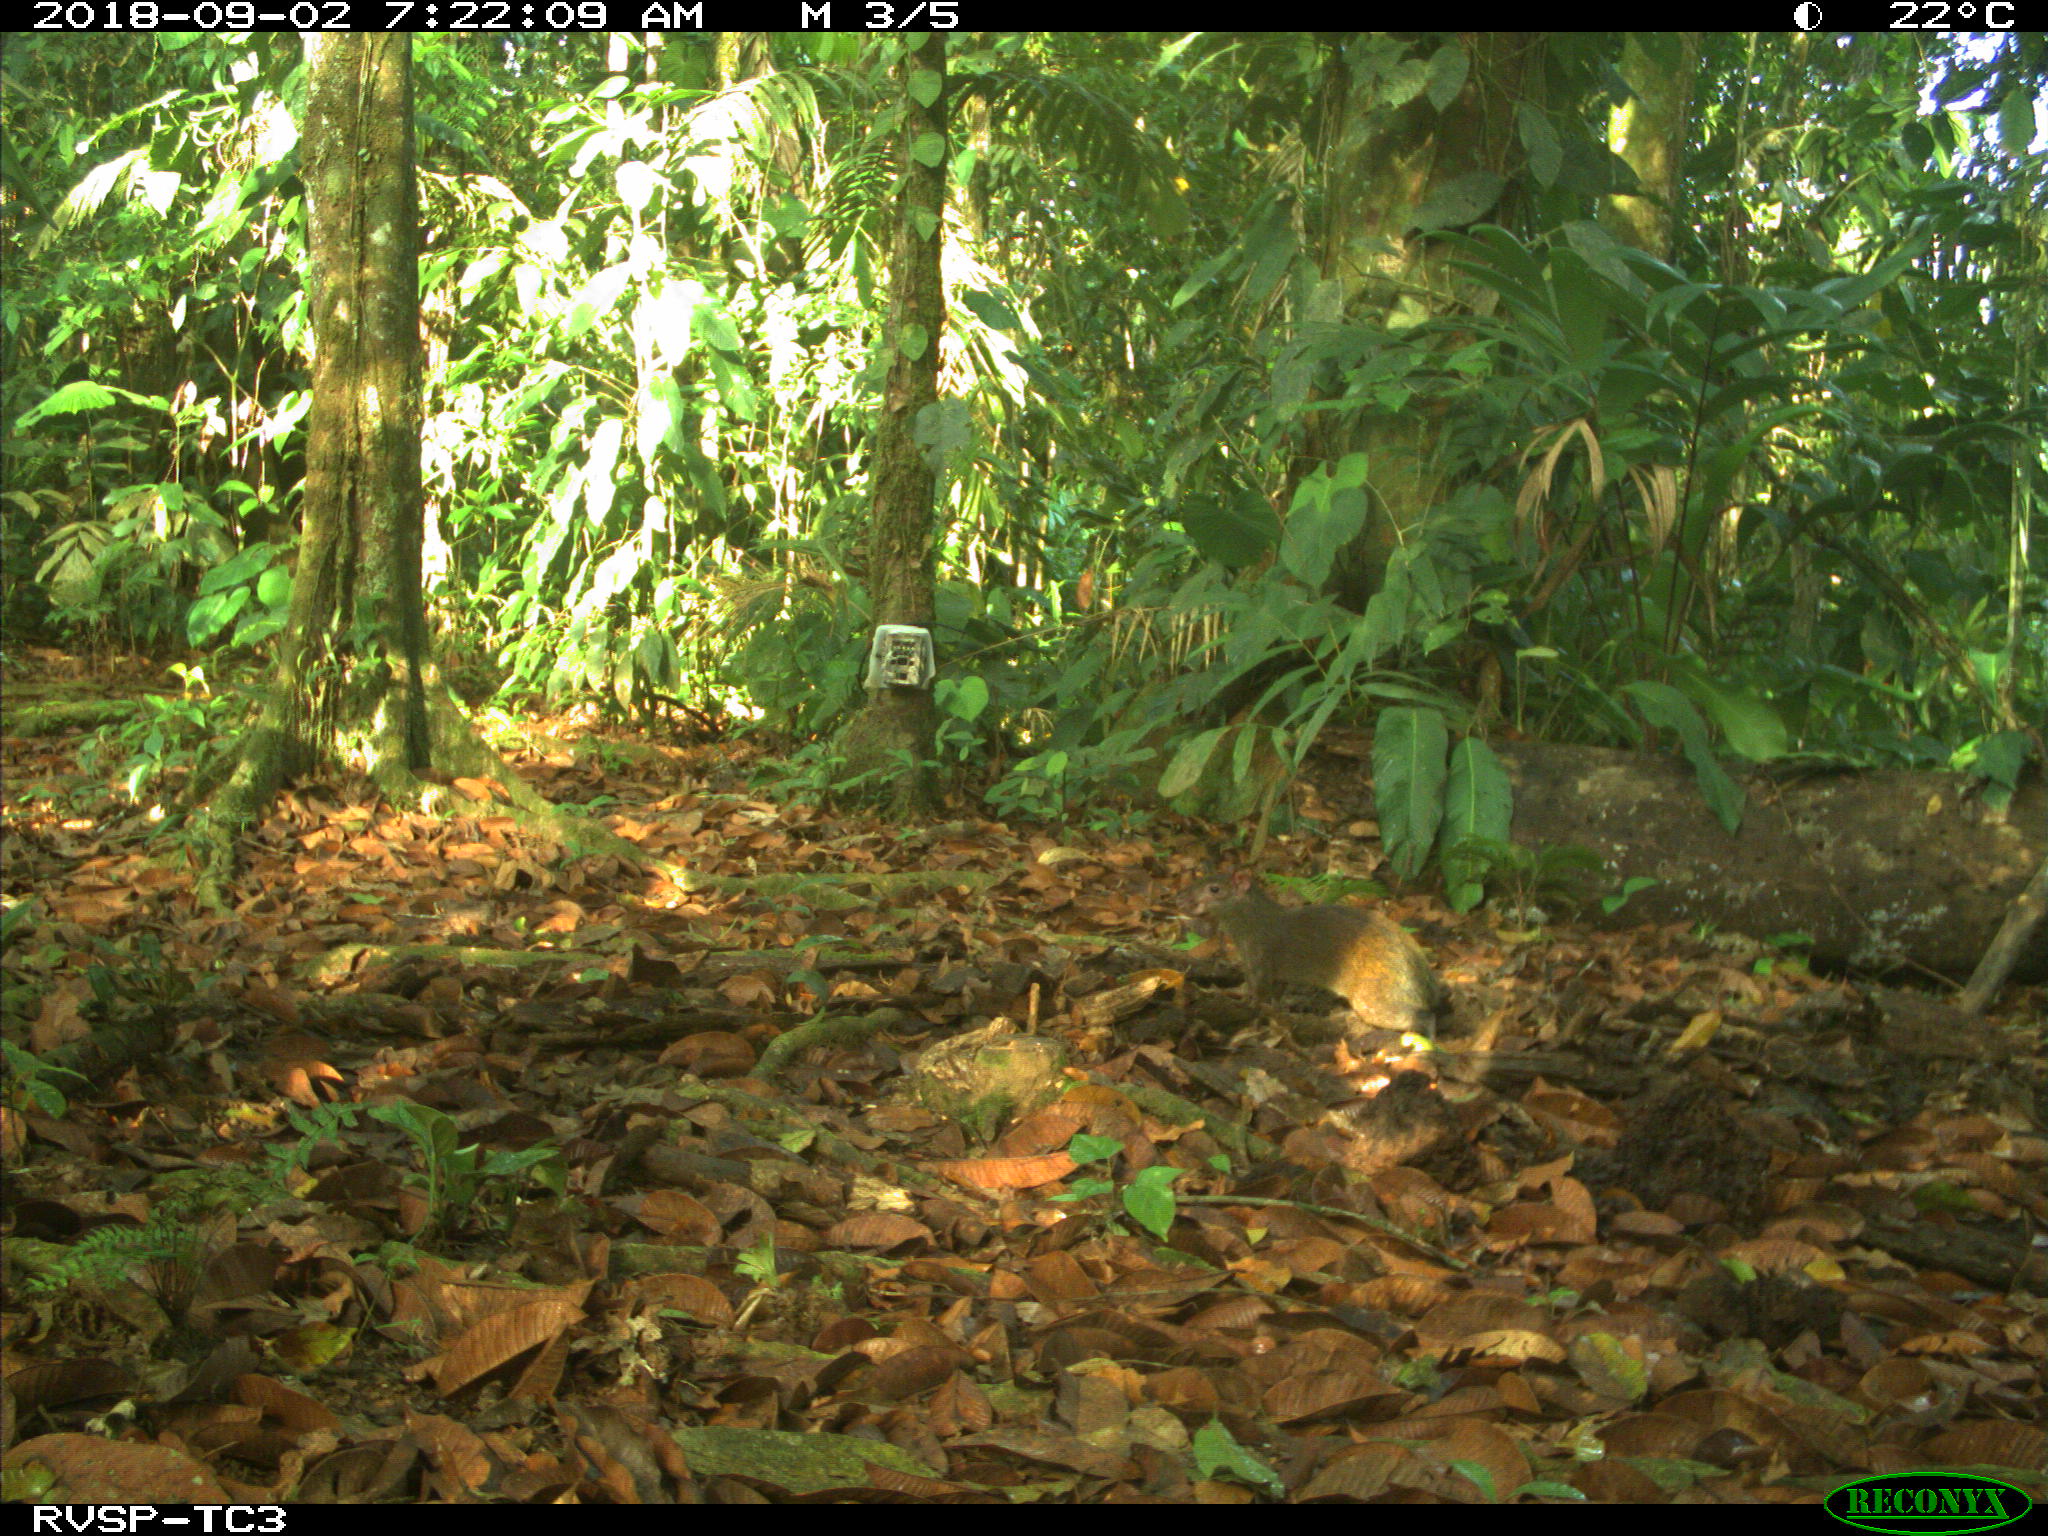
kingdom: Animalia
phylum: Chordata
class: Mammalia
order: Rodentia
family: Dasyproctidae
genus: Dasyprocta
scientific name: Dasyprocta punctata
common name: Central american agouti
